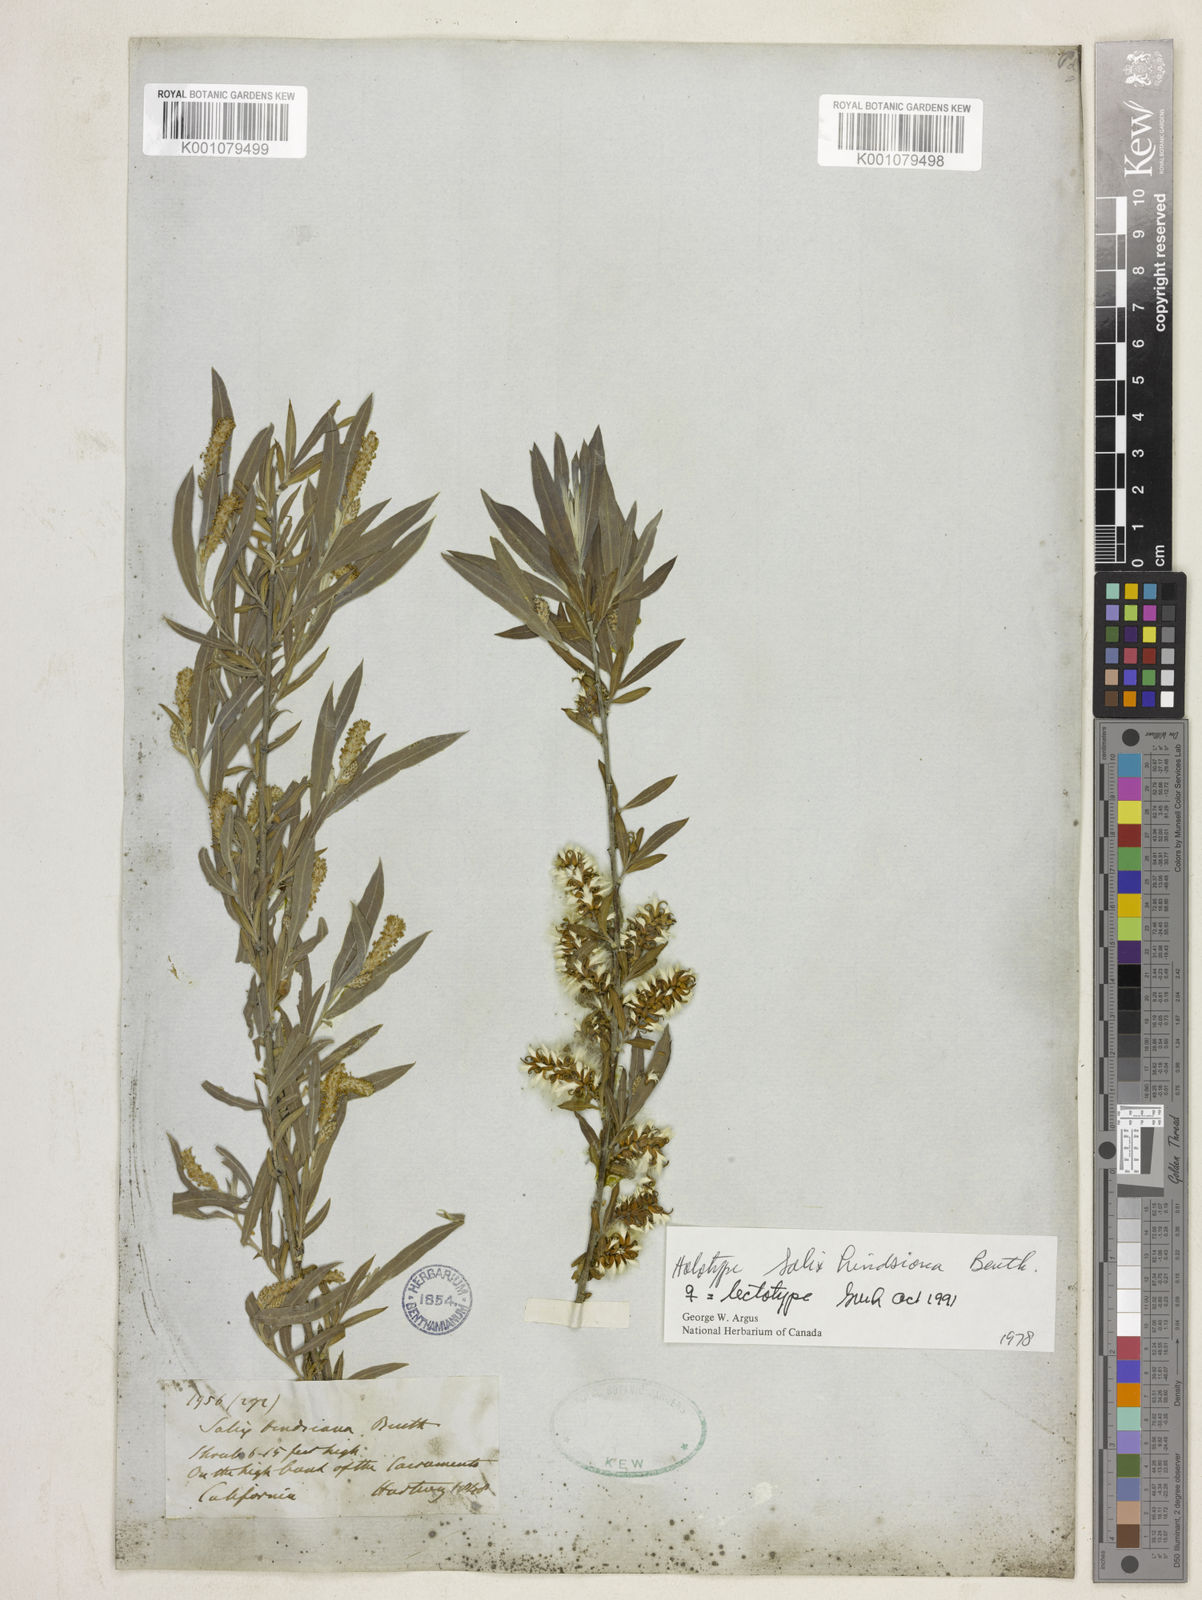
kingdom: Plantae
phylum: Tracheophyta
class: Magnoliopsida
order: Malpighiales
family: Salicaceae
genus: Salix
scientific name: Salix exigua
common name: Coyote willow
